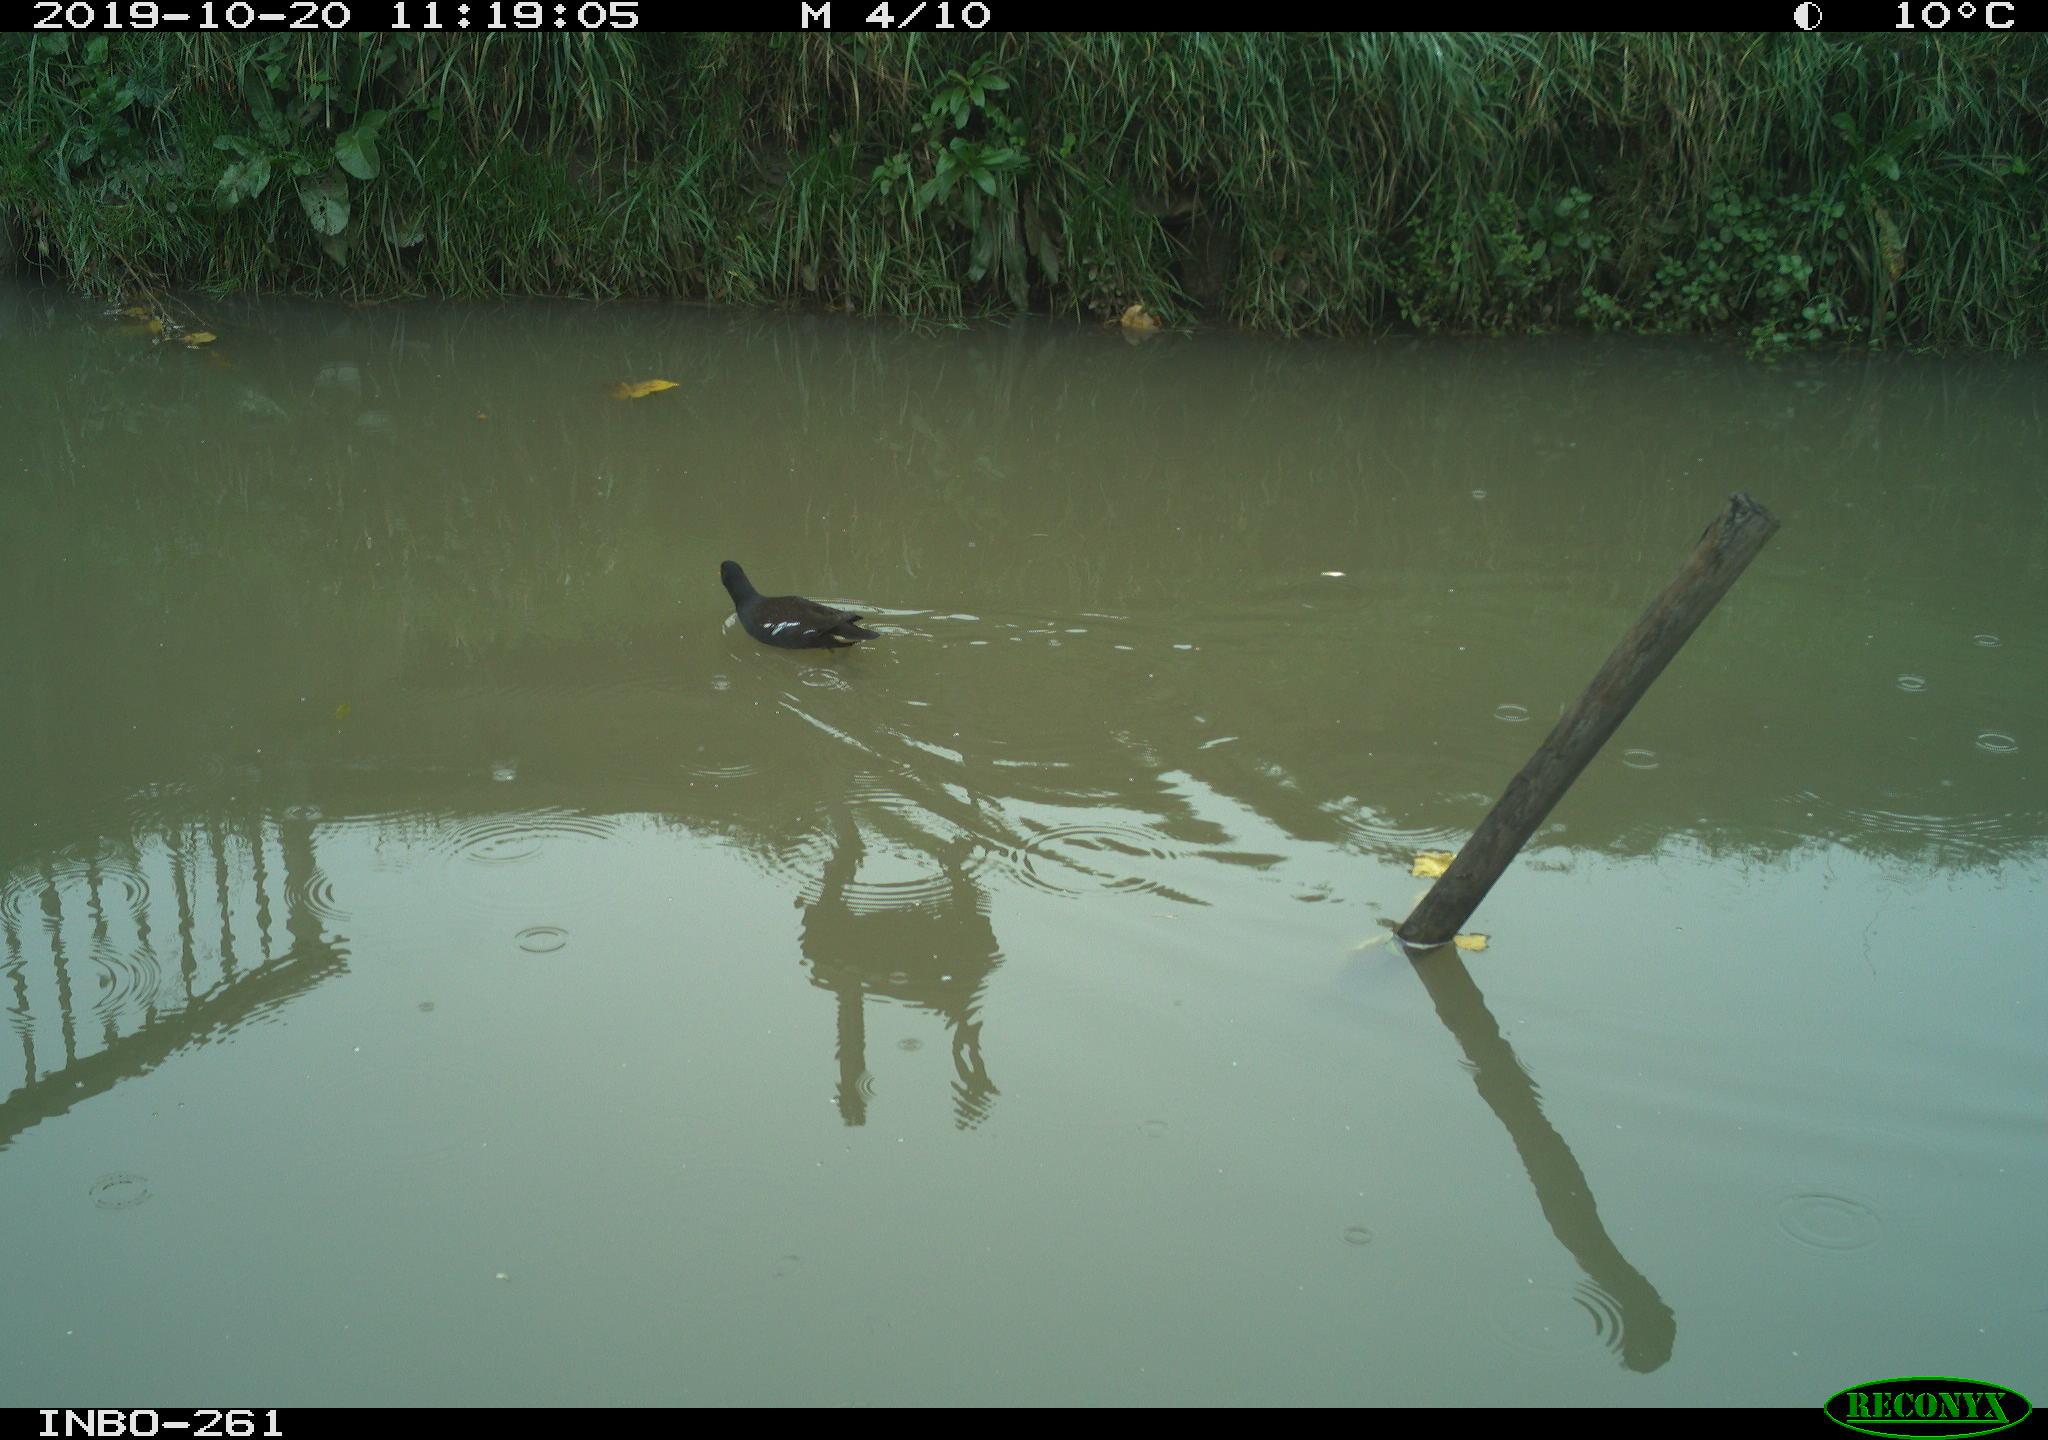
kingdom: Animalia
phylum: Chordata
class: Aves
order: Gruiformes
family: Rallidae
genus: Gallinula
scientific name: Gallinula chloropus
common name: Common moorhen
